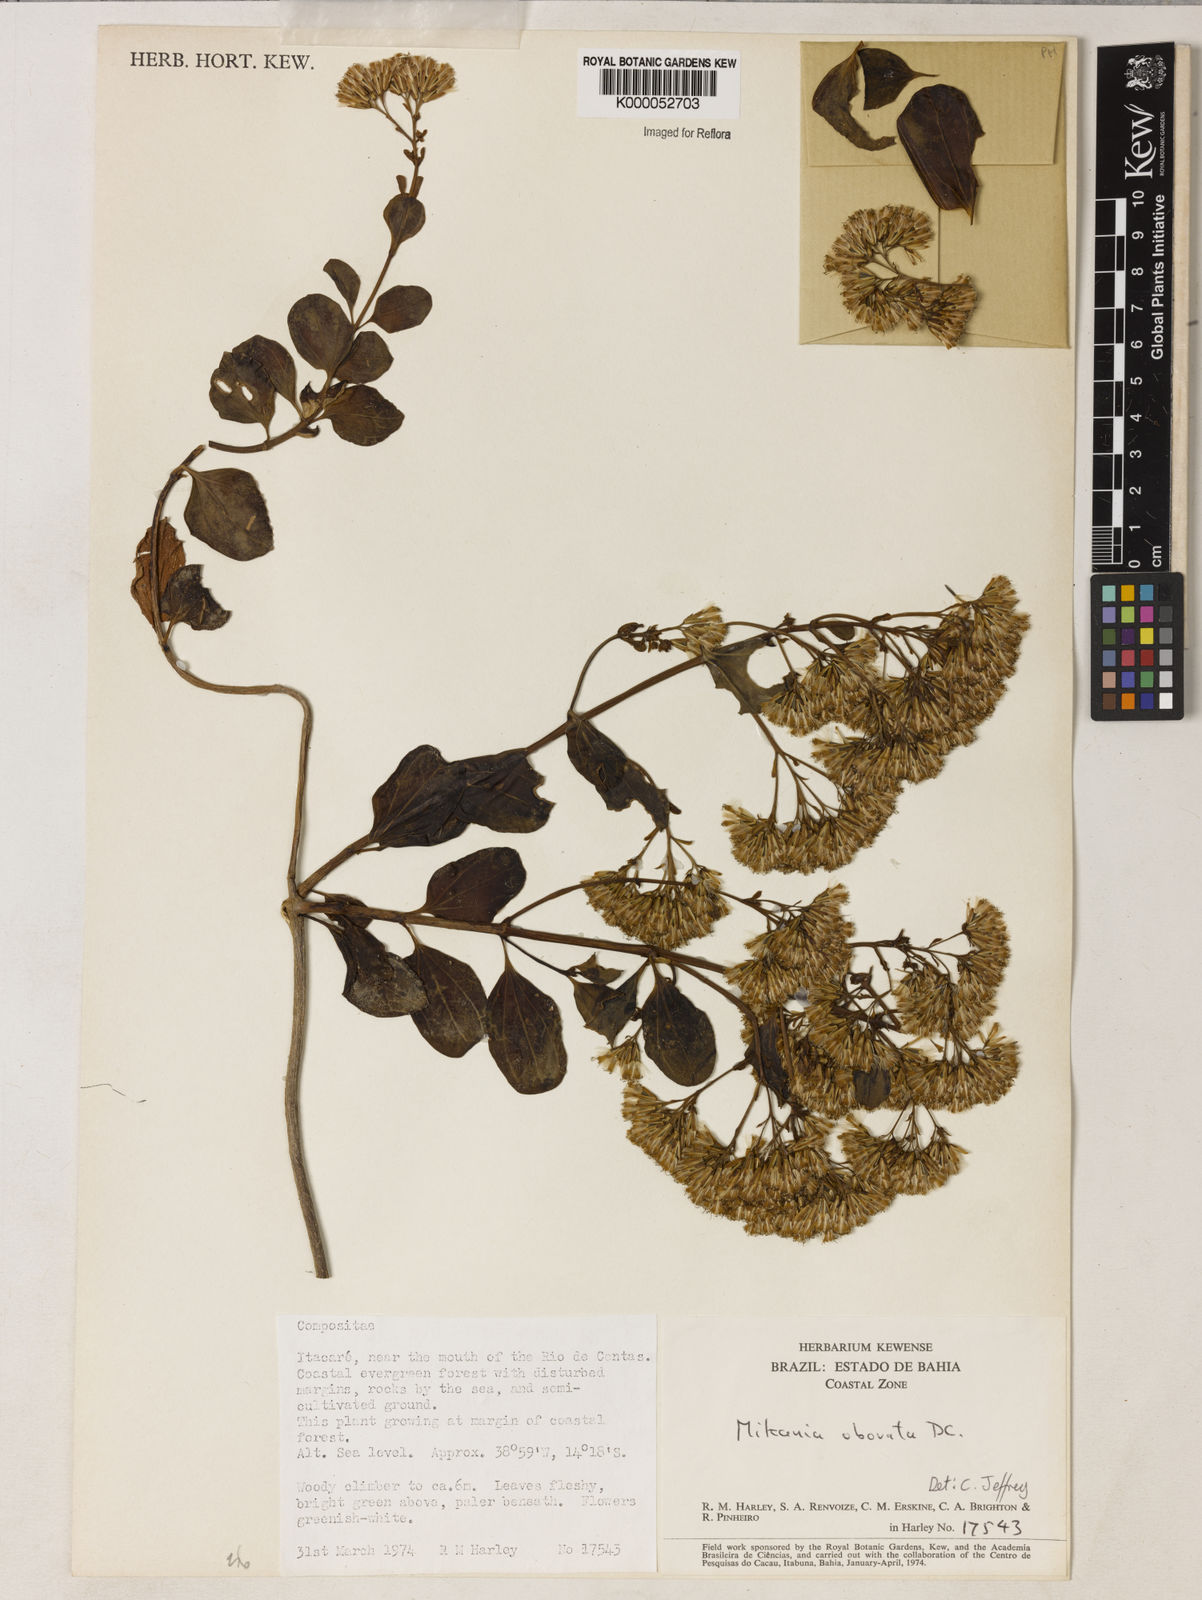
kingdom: Plantae
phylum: Tracheophyta
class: Magnoliopsida
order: Asterales
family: Asteraceae
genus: Mikania
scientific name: Mikania obovata
